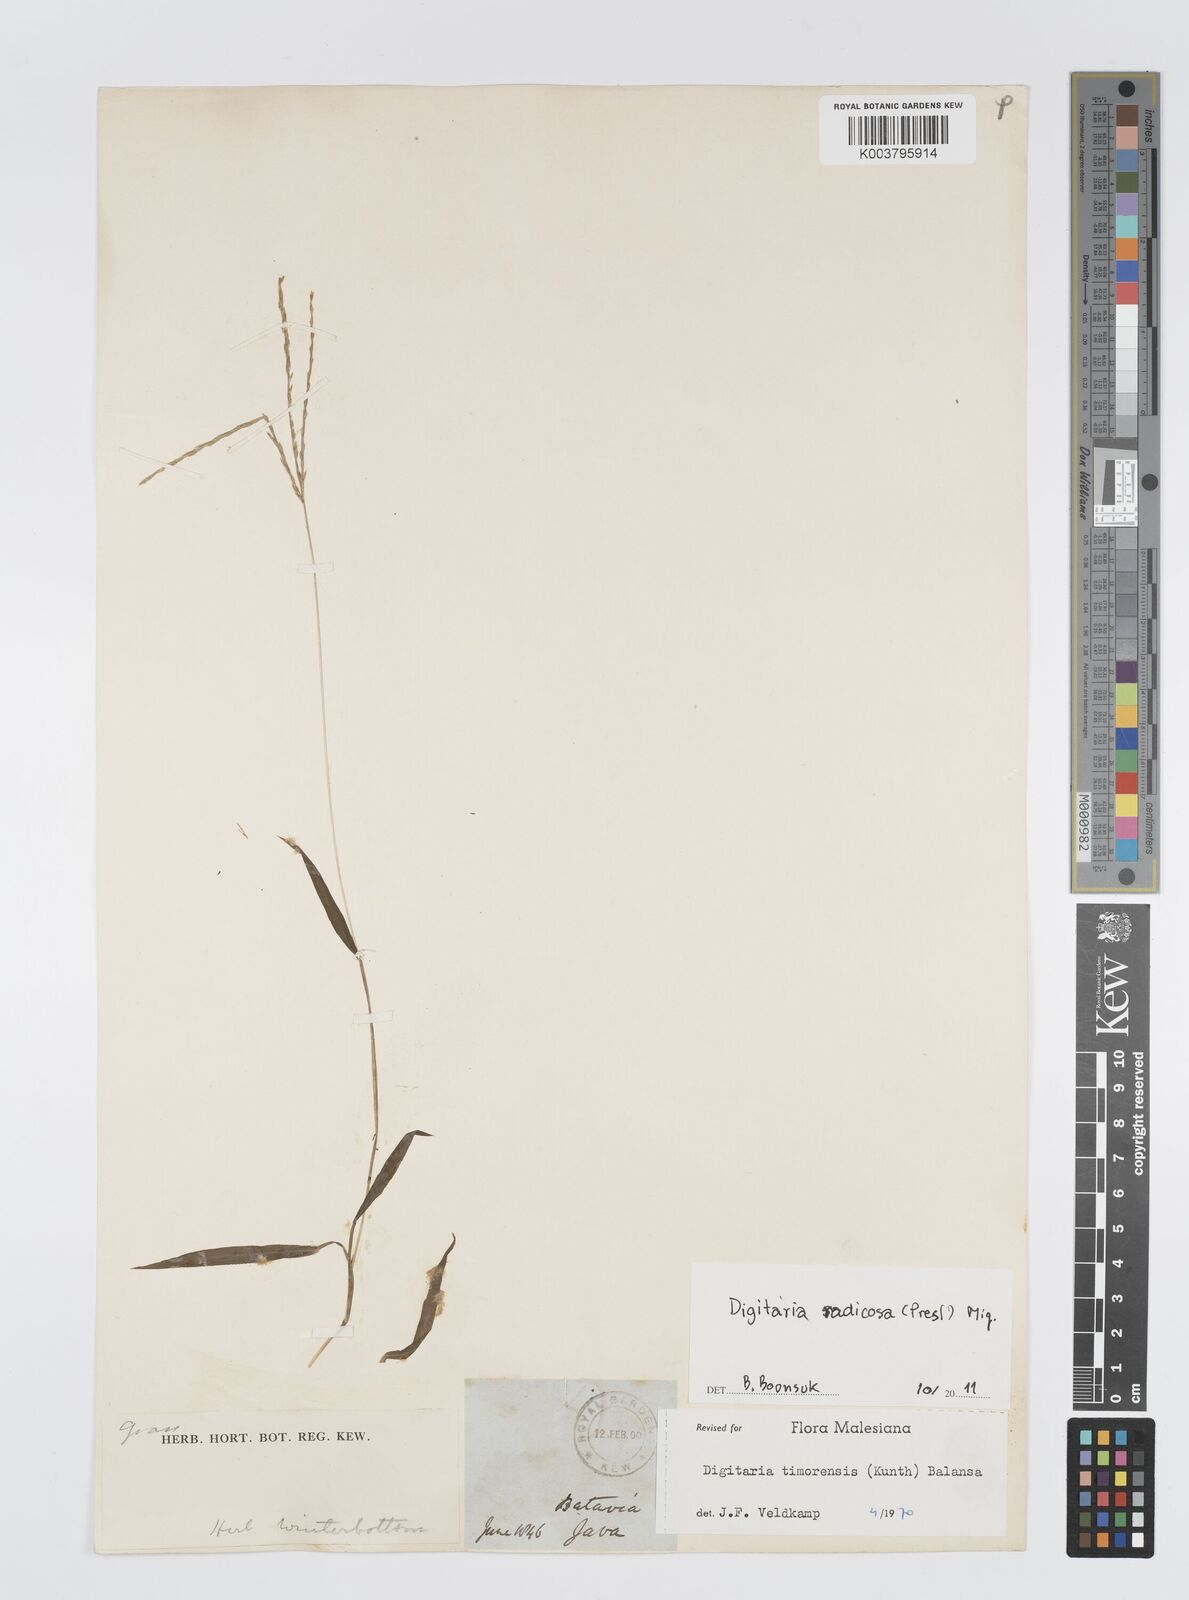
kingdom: Plantae
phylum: Tracheophyta
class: Liliopsida
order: Poales
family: Poaceae
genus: Digitaria
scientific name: Digitaria radicosa
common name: Trailing crabgrass
